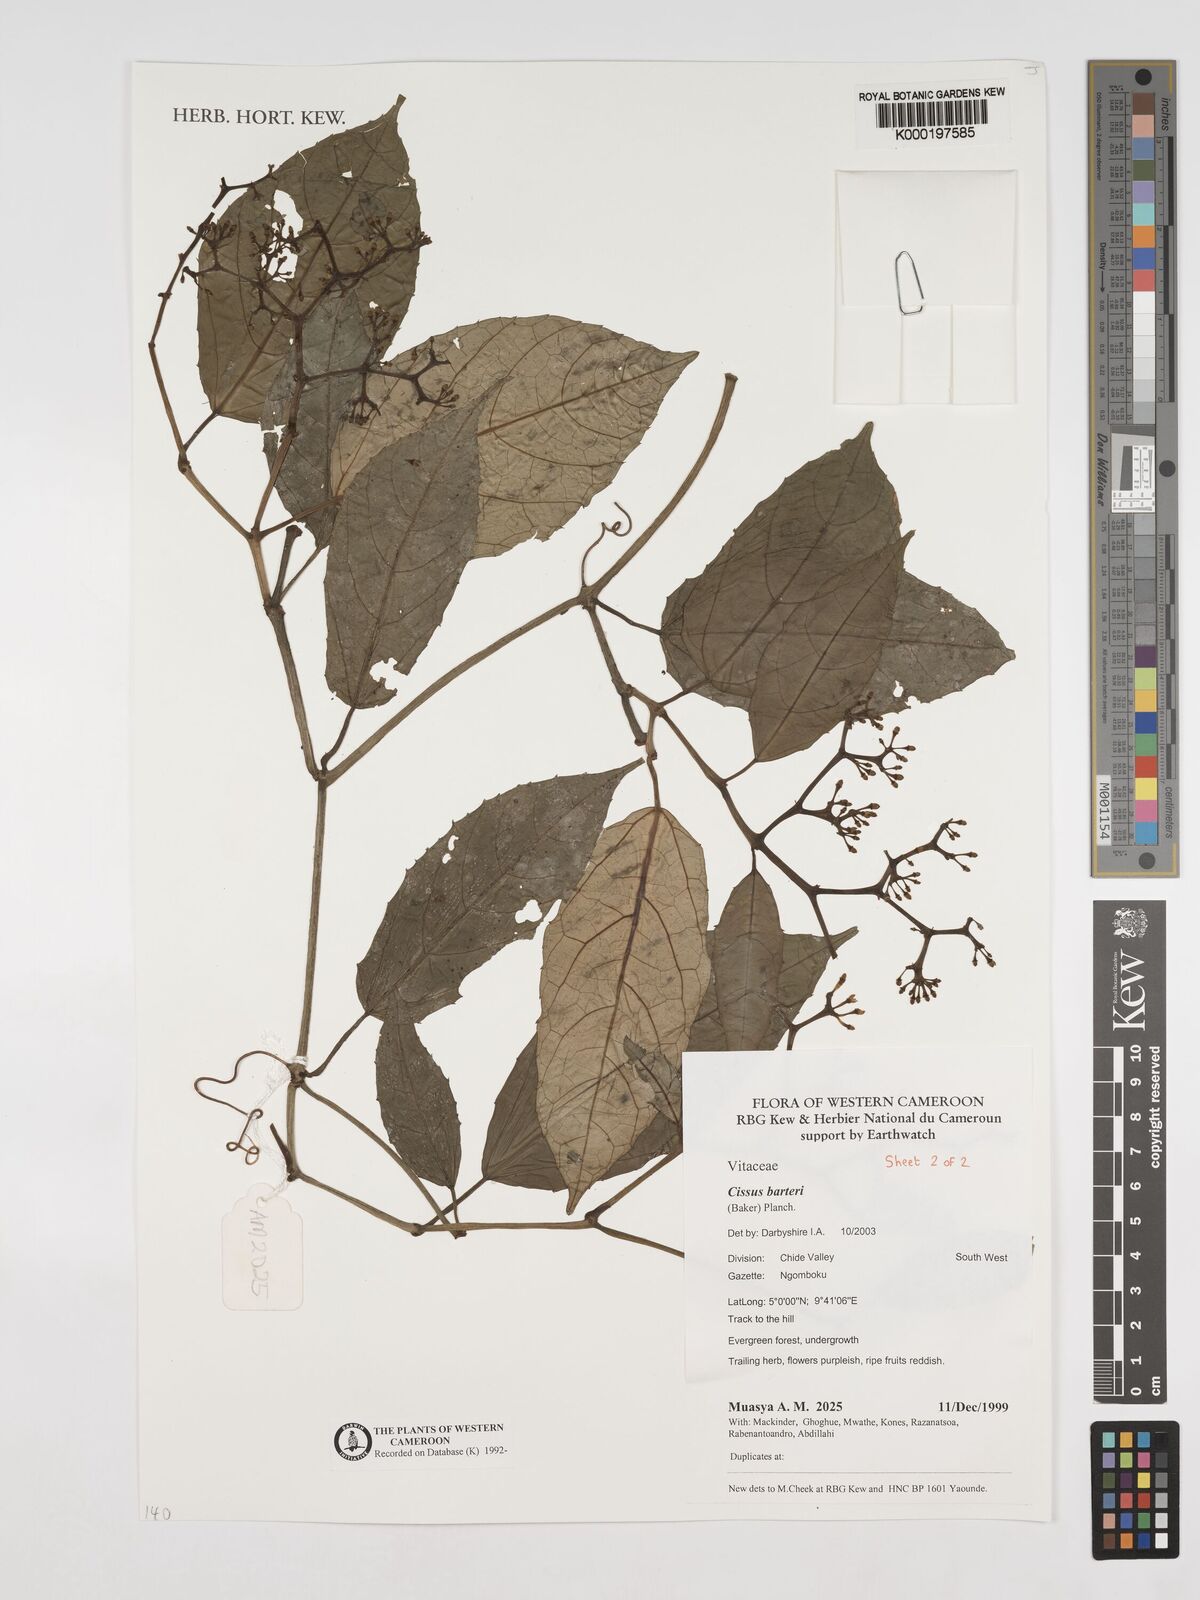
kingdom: Plantae
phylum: Tracheophyta
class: Magnoliopsida
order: Vitales
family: Vitaceae
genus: Cissus
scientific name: Cissus barteri
